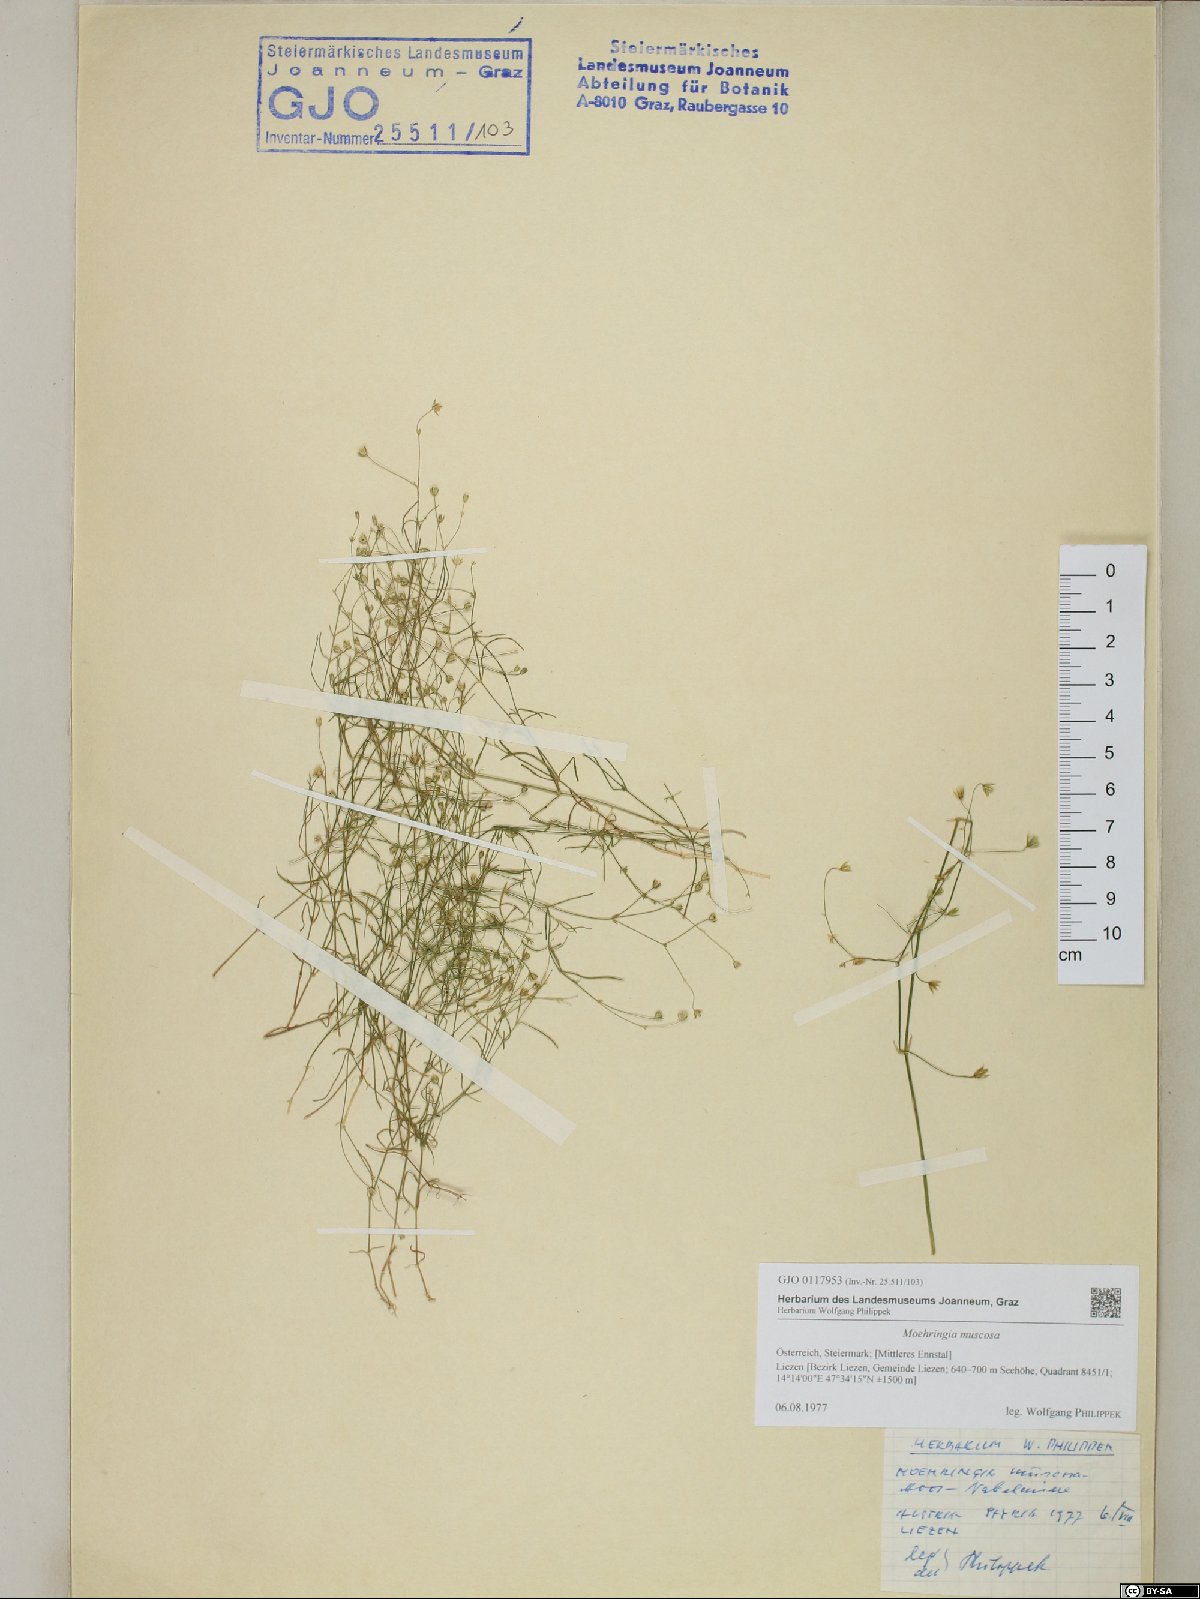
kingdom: Plantae
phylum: Tracheophyta
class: Magnoliopsida
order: Caryophyllales
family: Caryophyllaceae
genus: Moehringia
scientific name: Moehringia muscosa
